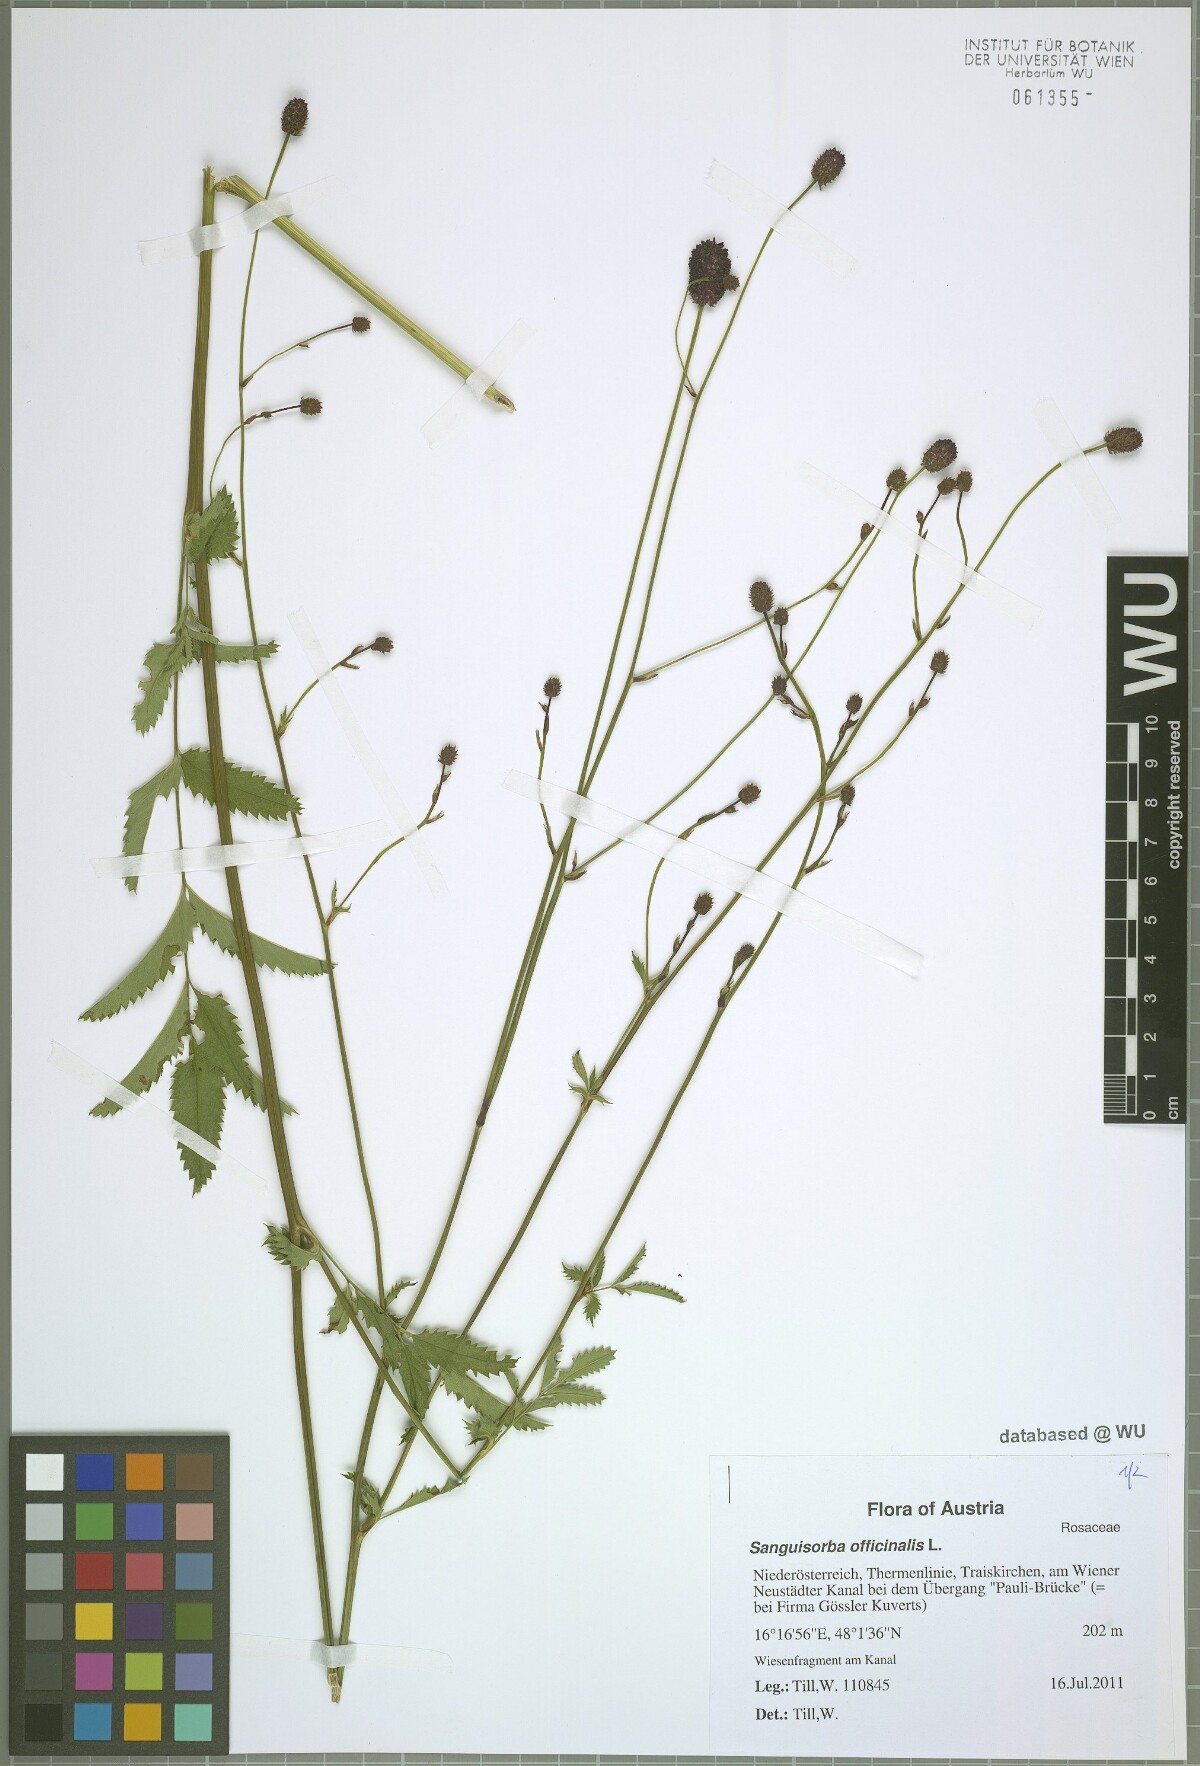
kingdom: Plantae
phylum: Tracheophyta
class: Magnoliopsida
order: Rosales
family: Rosaceae
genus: Sanguisorba
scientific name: Sanguisorba officinalis
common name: Great burnet
